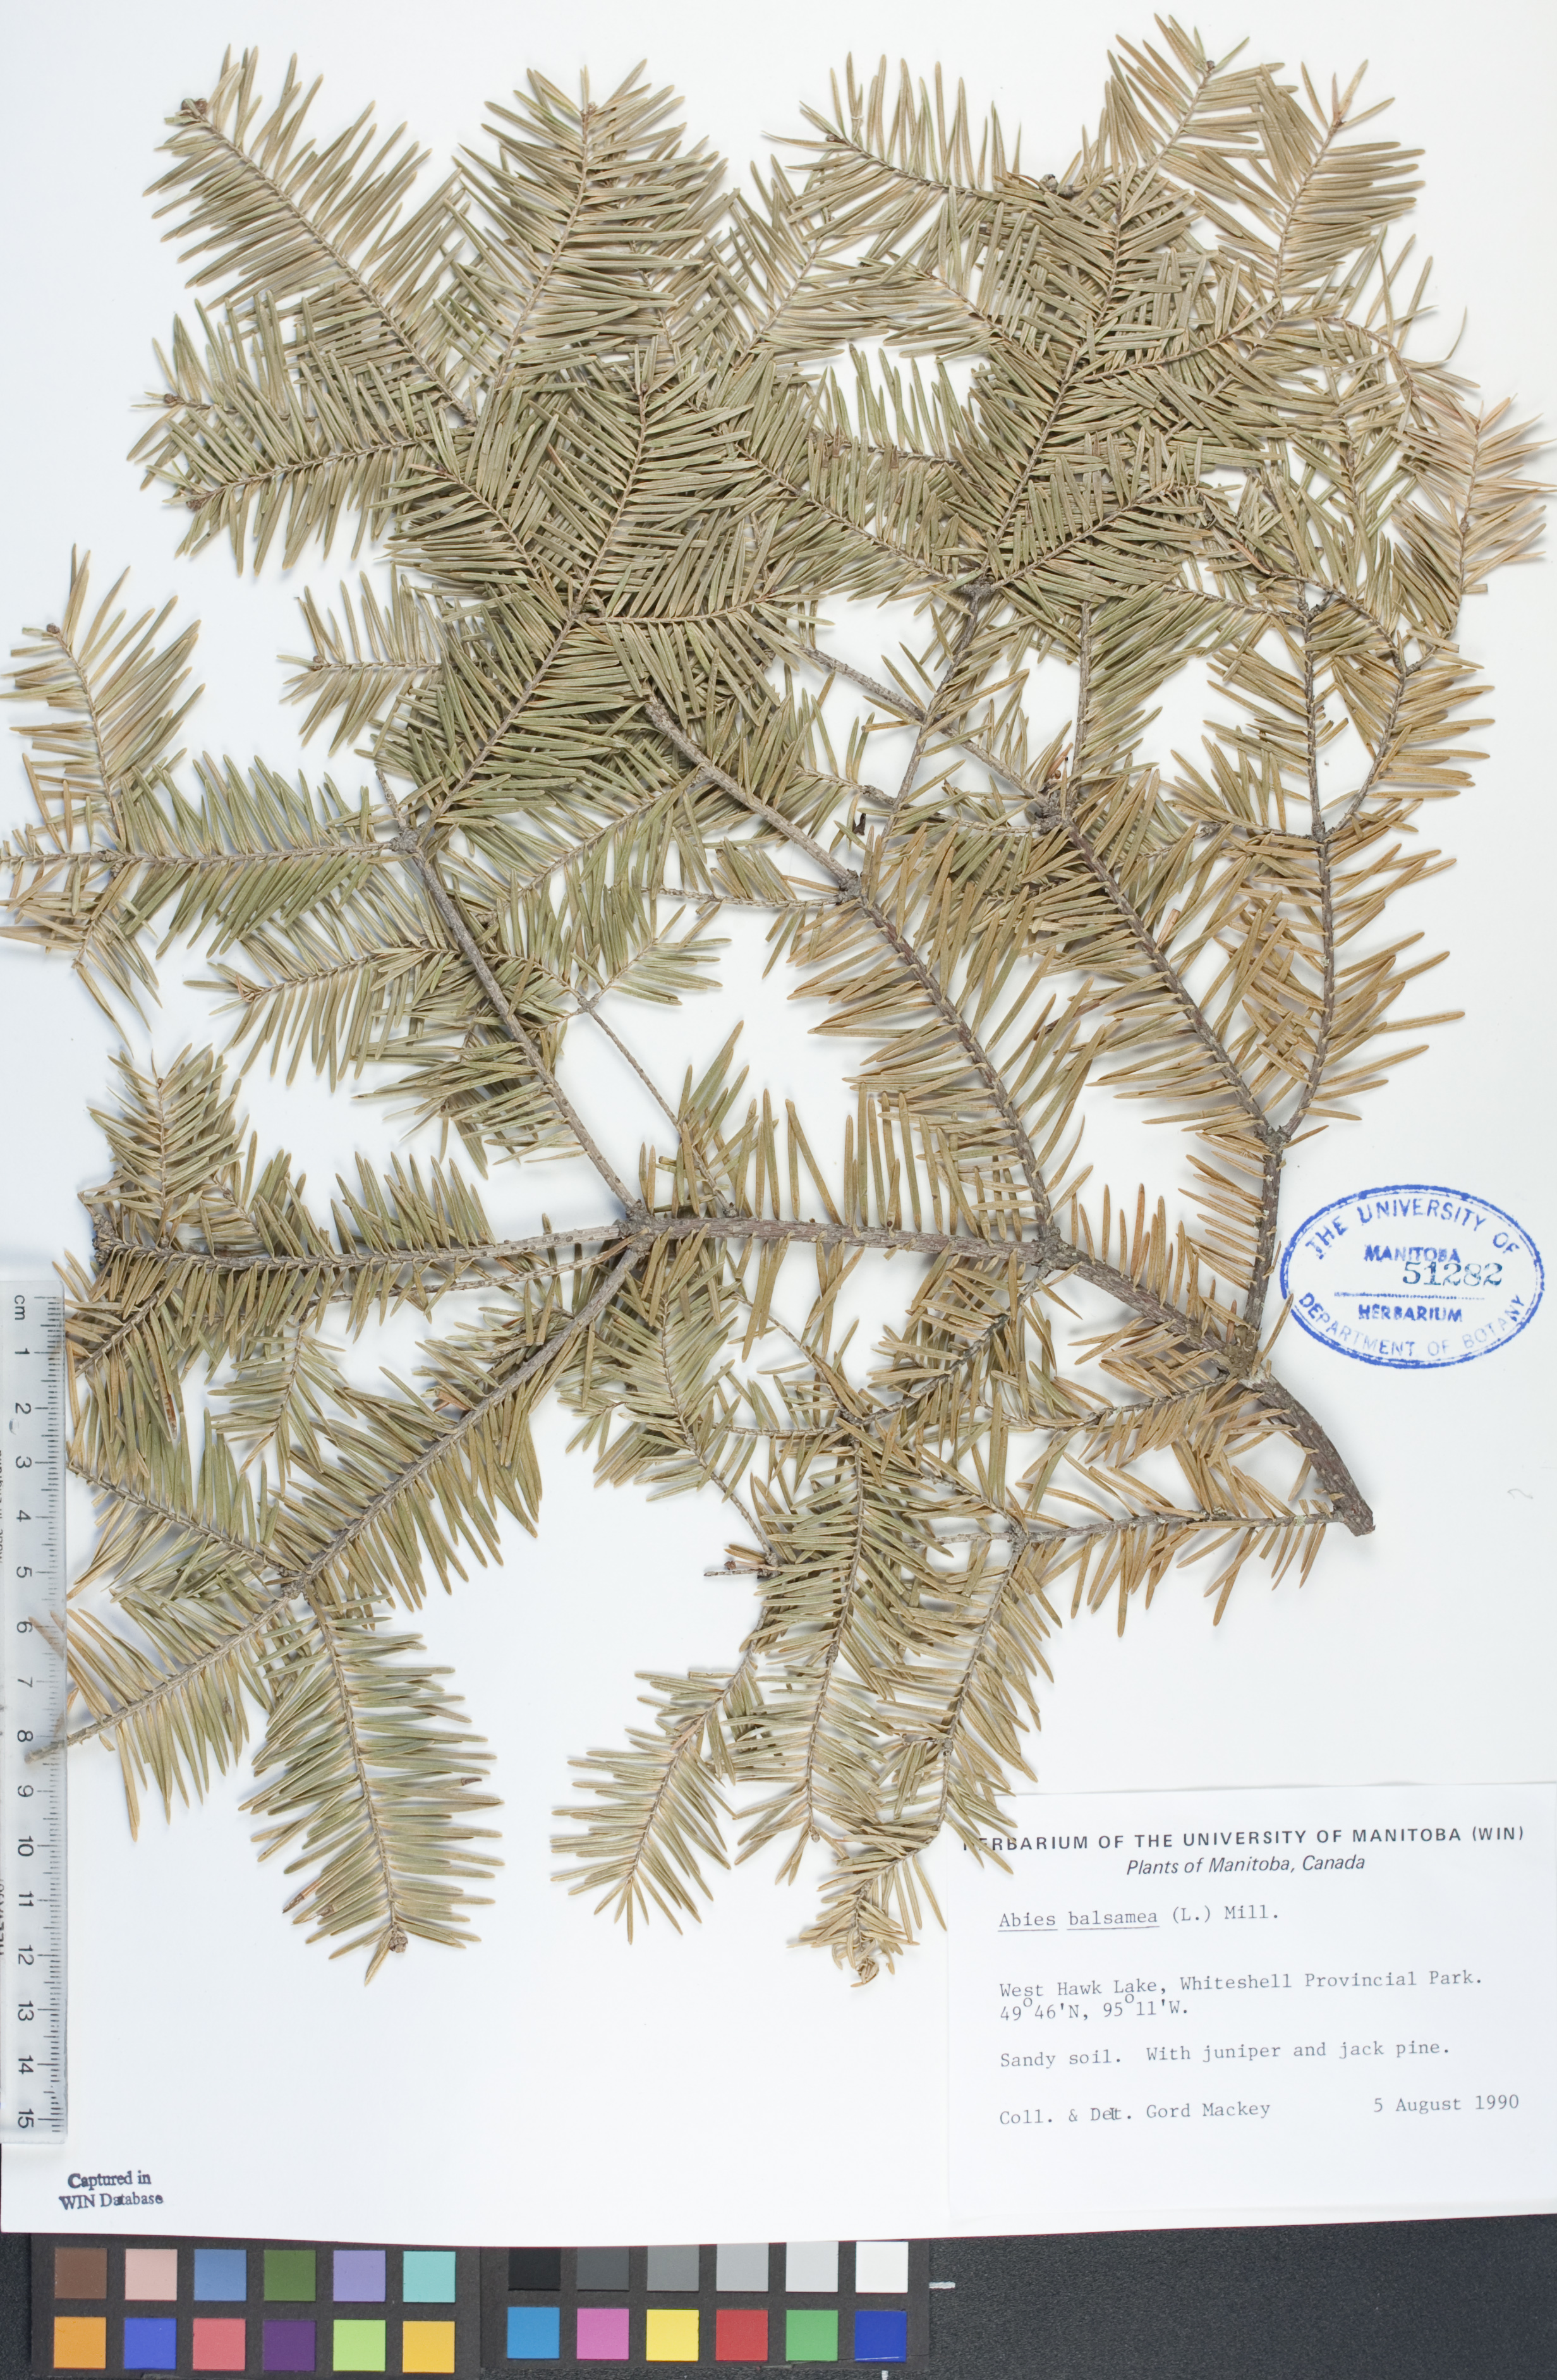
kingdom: Plantae
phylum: Tracheophyta
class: Pinopsida
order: Pinales
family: Pinaceae
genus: Abies
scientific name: Abies balsamea
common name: Balsam fir
